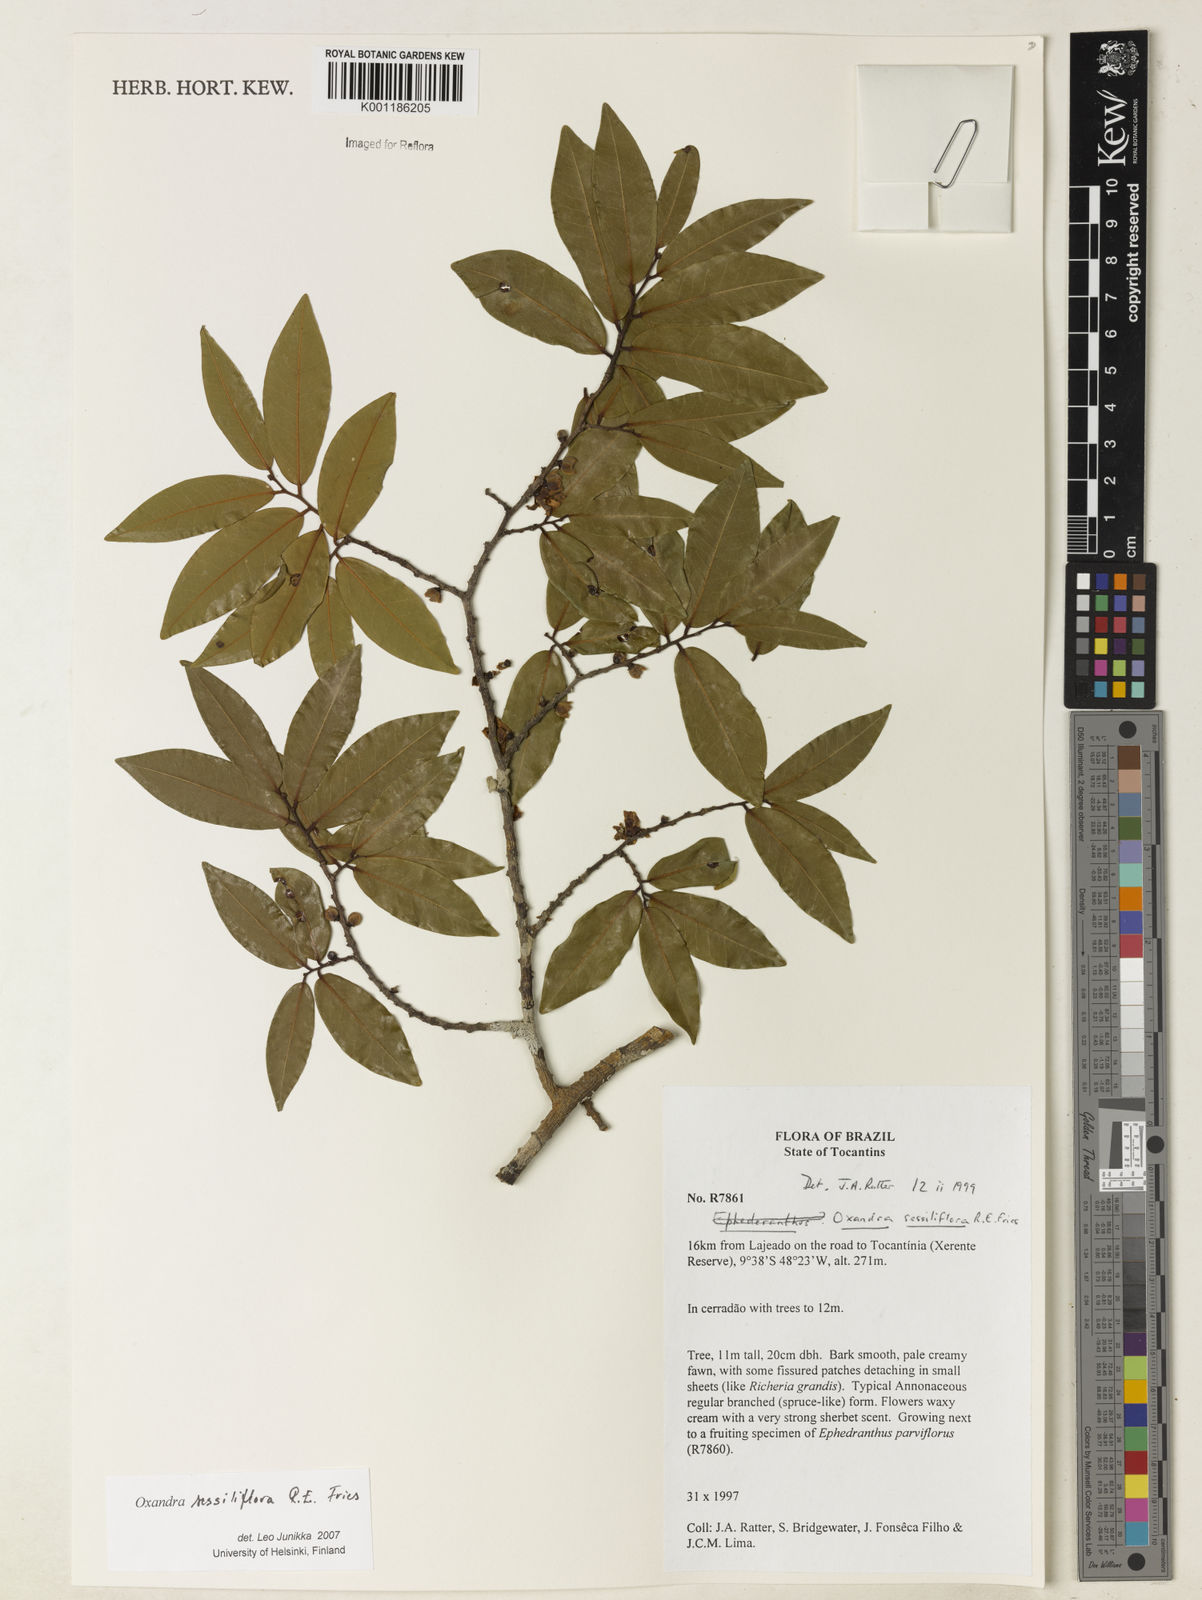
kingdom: Plantae
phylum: Tracheophyta
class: Magnoliopsida
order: Magnoliales
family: Annonaceae
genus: Oxandra
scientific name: Oxandra sessiliflora
